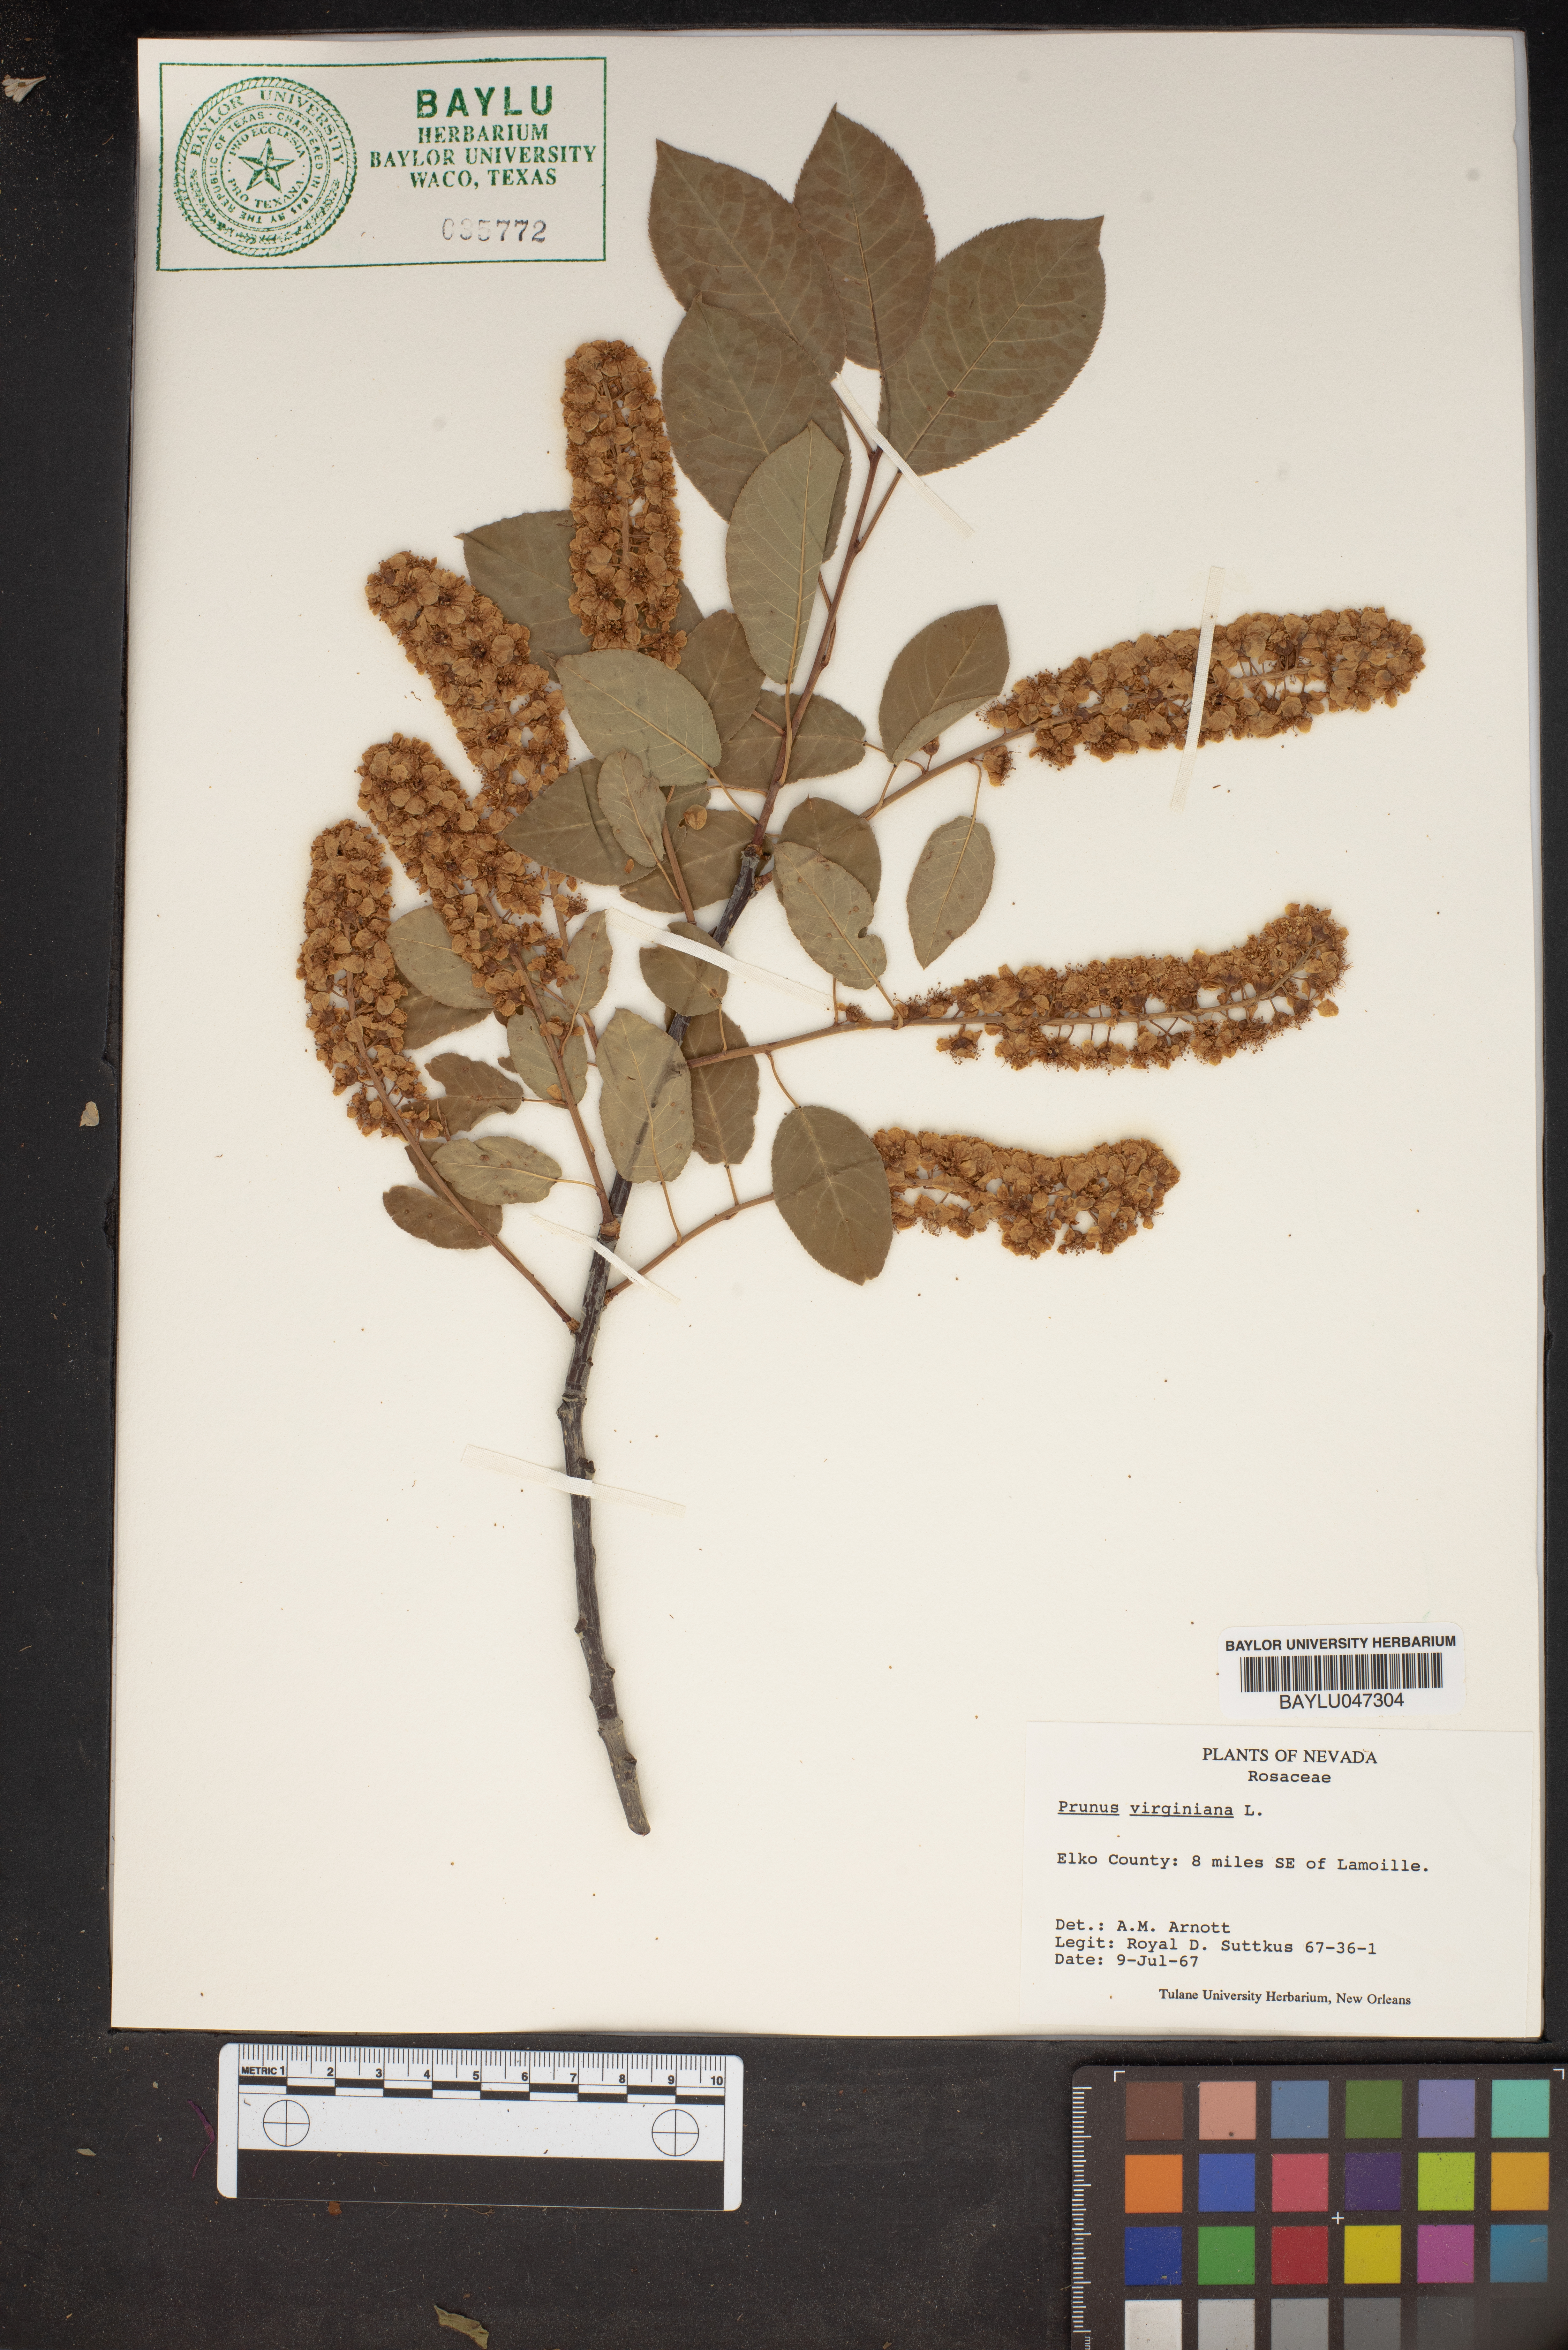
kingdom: Plantae
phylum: Tracheophyta
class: Magnoliopsida
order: Rosales
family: Rosaceae
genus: Prunus
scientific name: Prunus virginiana
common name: Chokecherry
